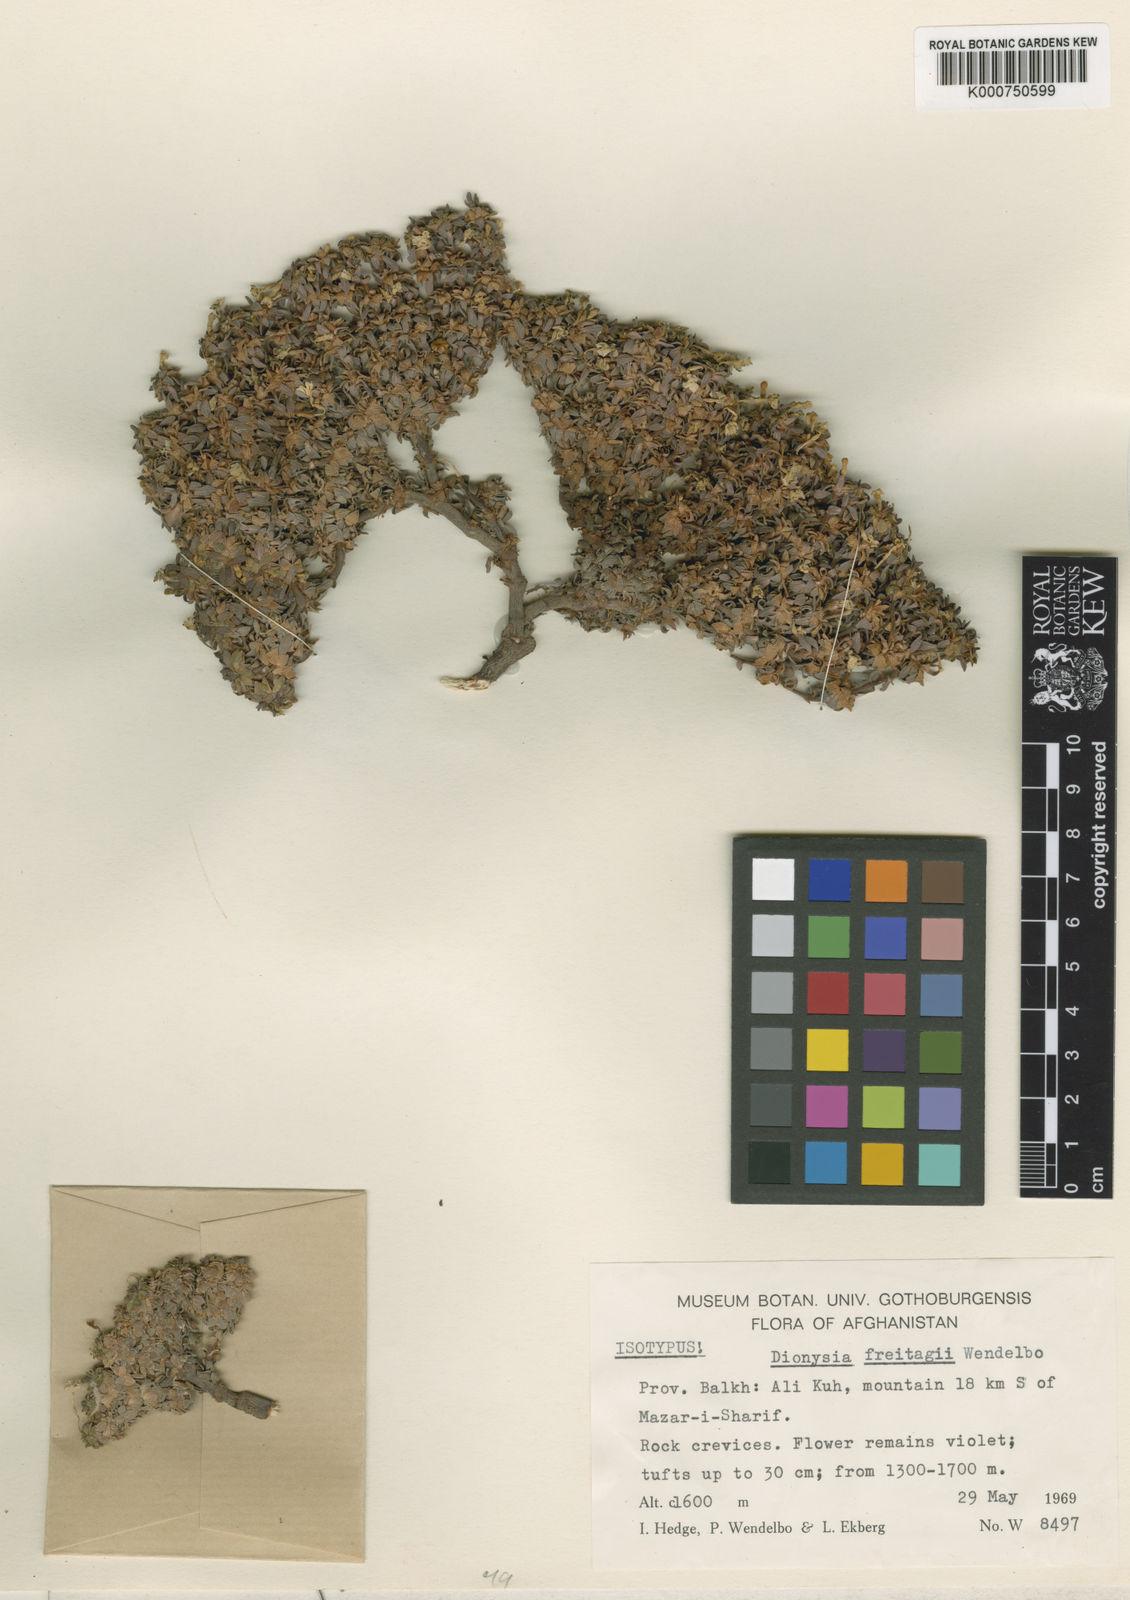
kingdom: Plantae
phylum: Tracheophyta
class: Magnoliopsida
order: Ericales
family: Primulaceae
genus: Dionysia
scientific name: Dionysia freitagii
